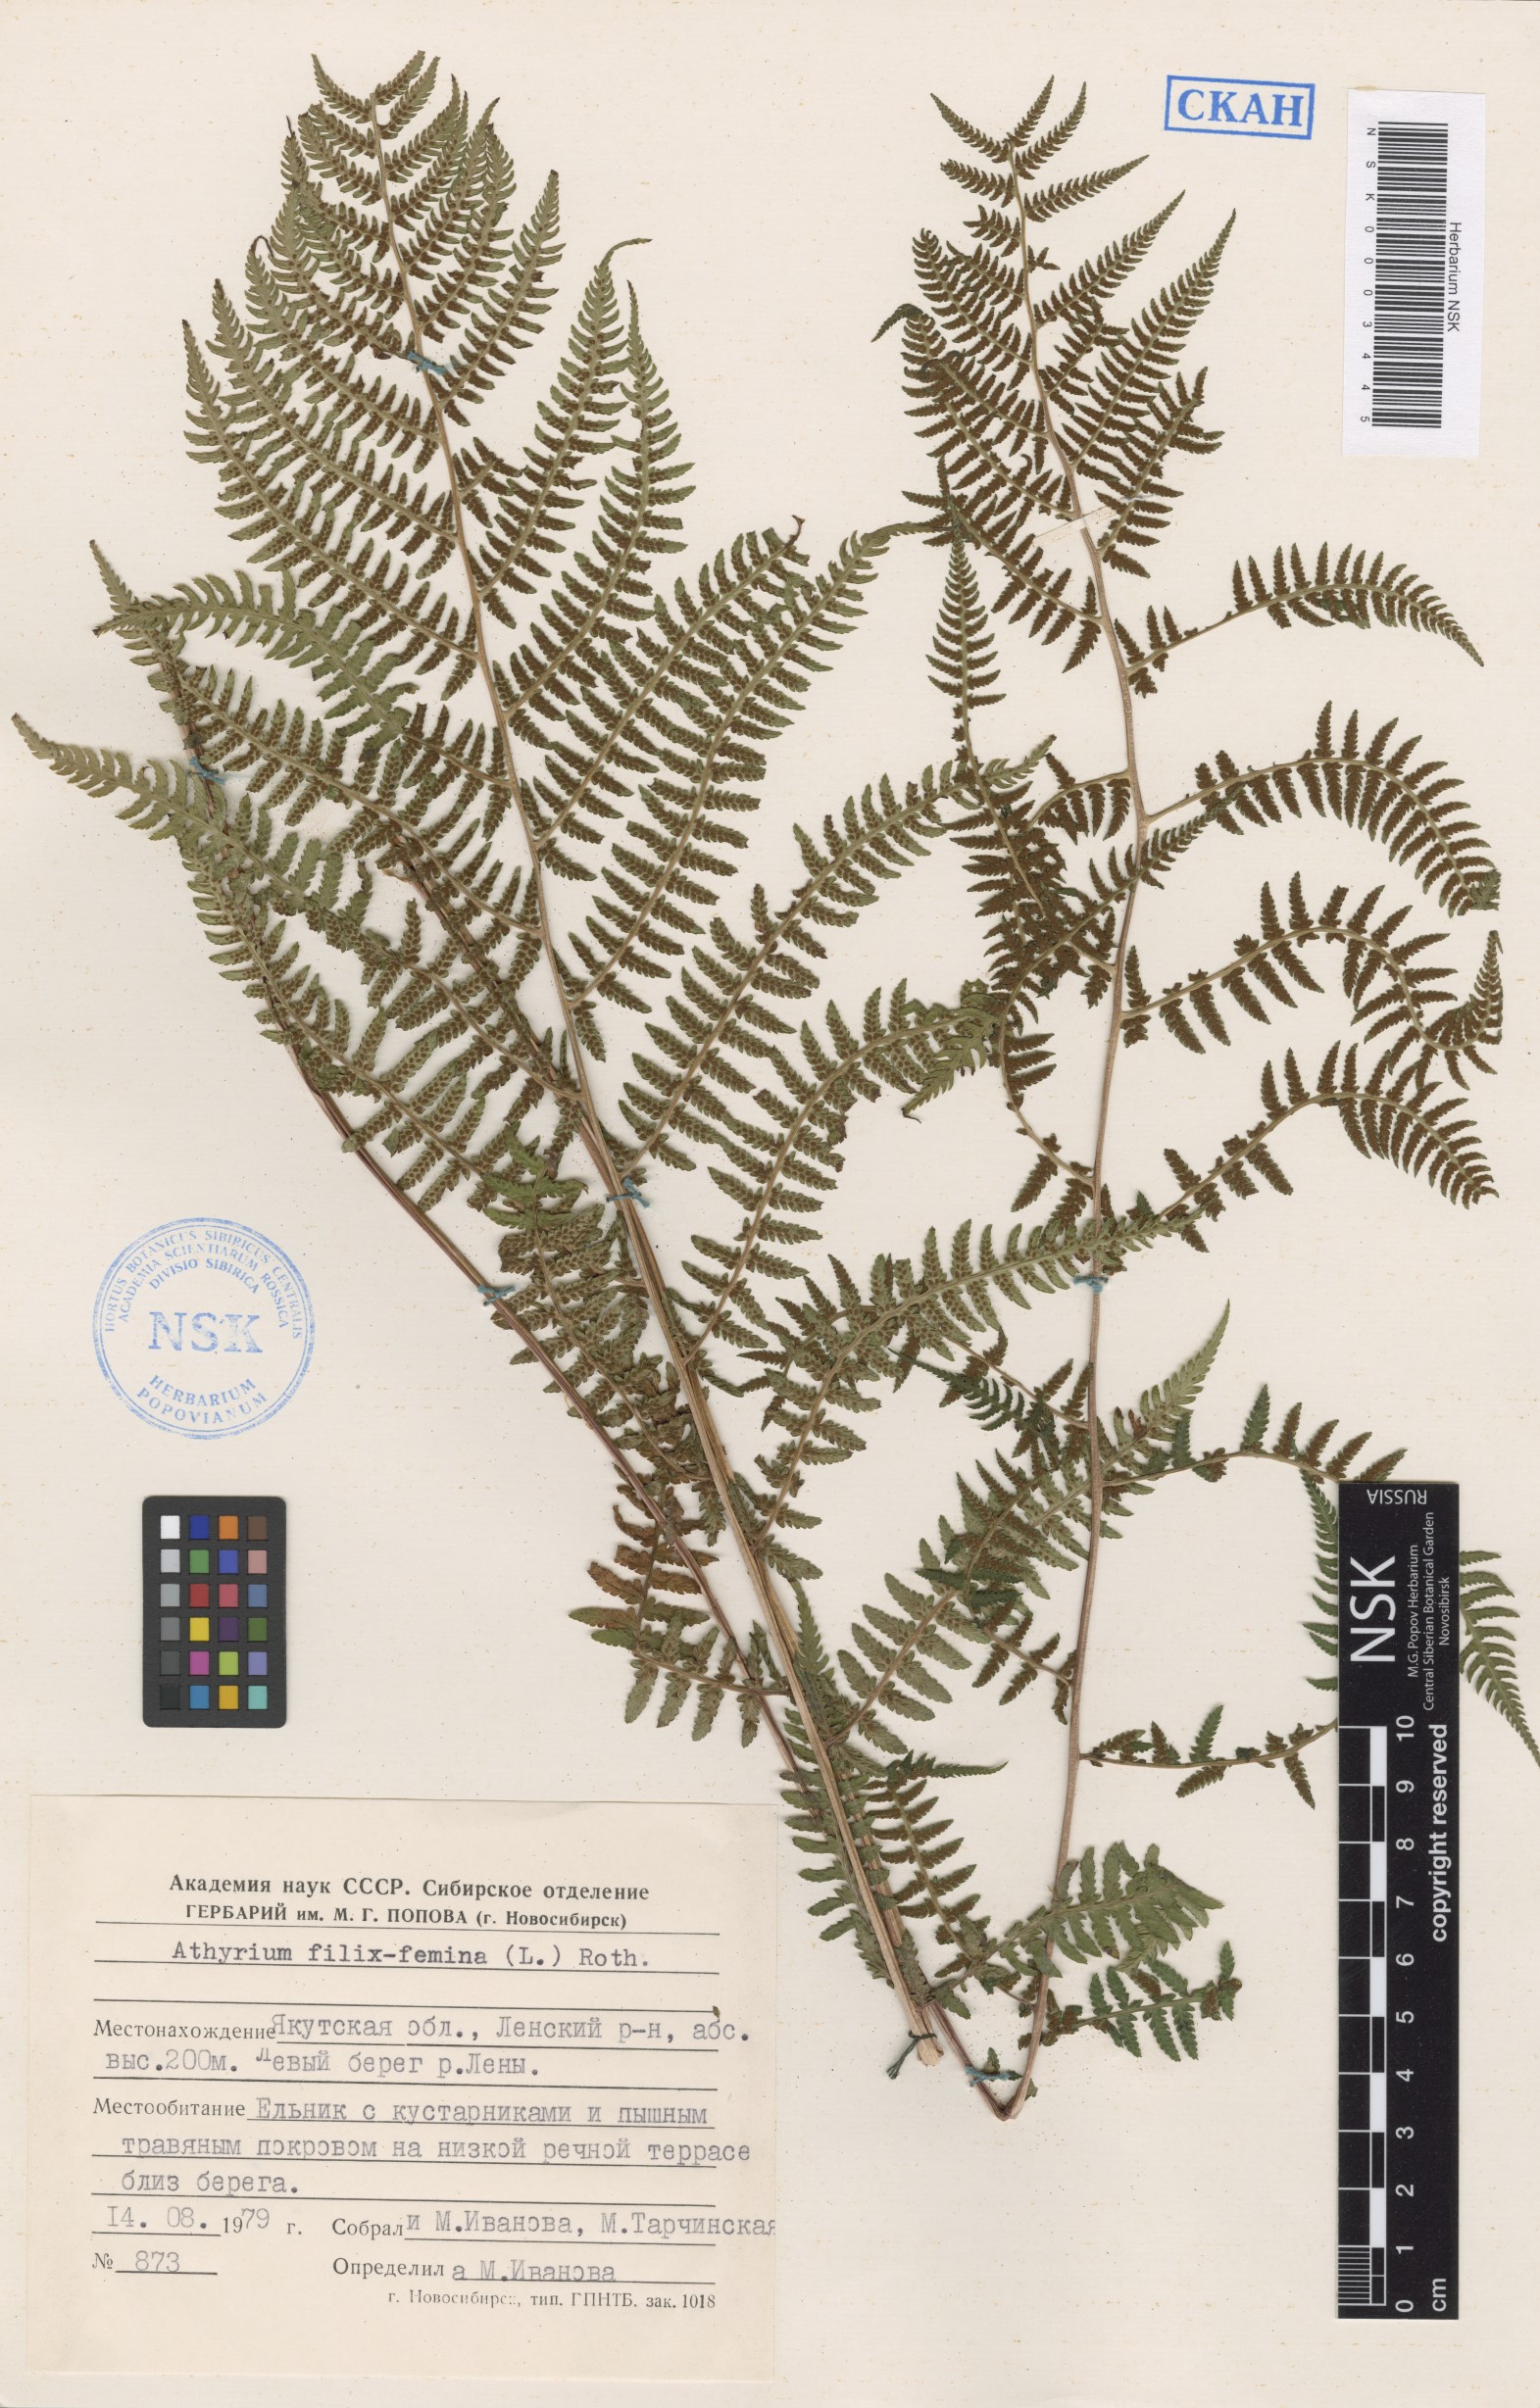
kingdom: Plantae
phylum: Tracheophyta
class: Polypodiopsida
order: Polypodiales
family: Athyriaceae
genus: Athyrium
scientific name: Athyrium filix-femina
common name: Lady fern
